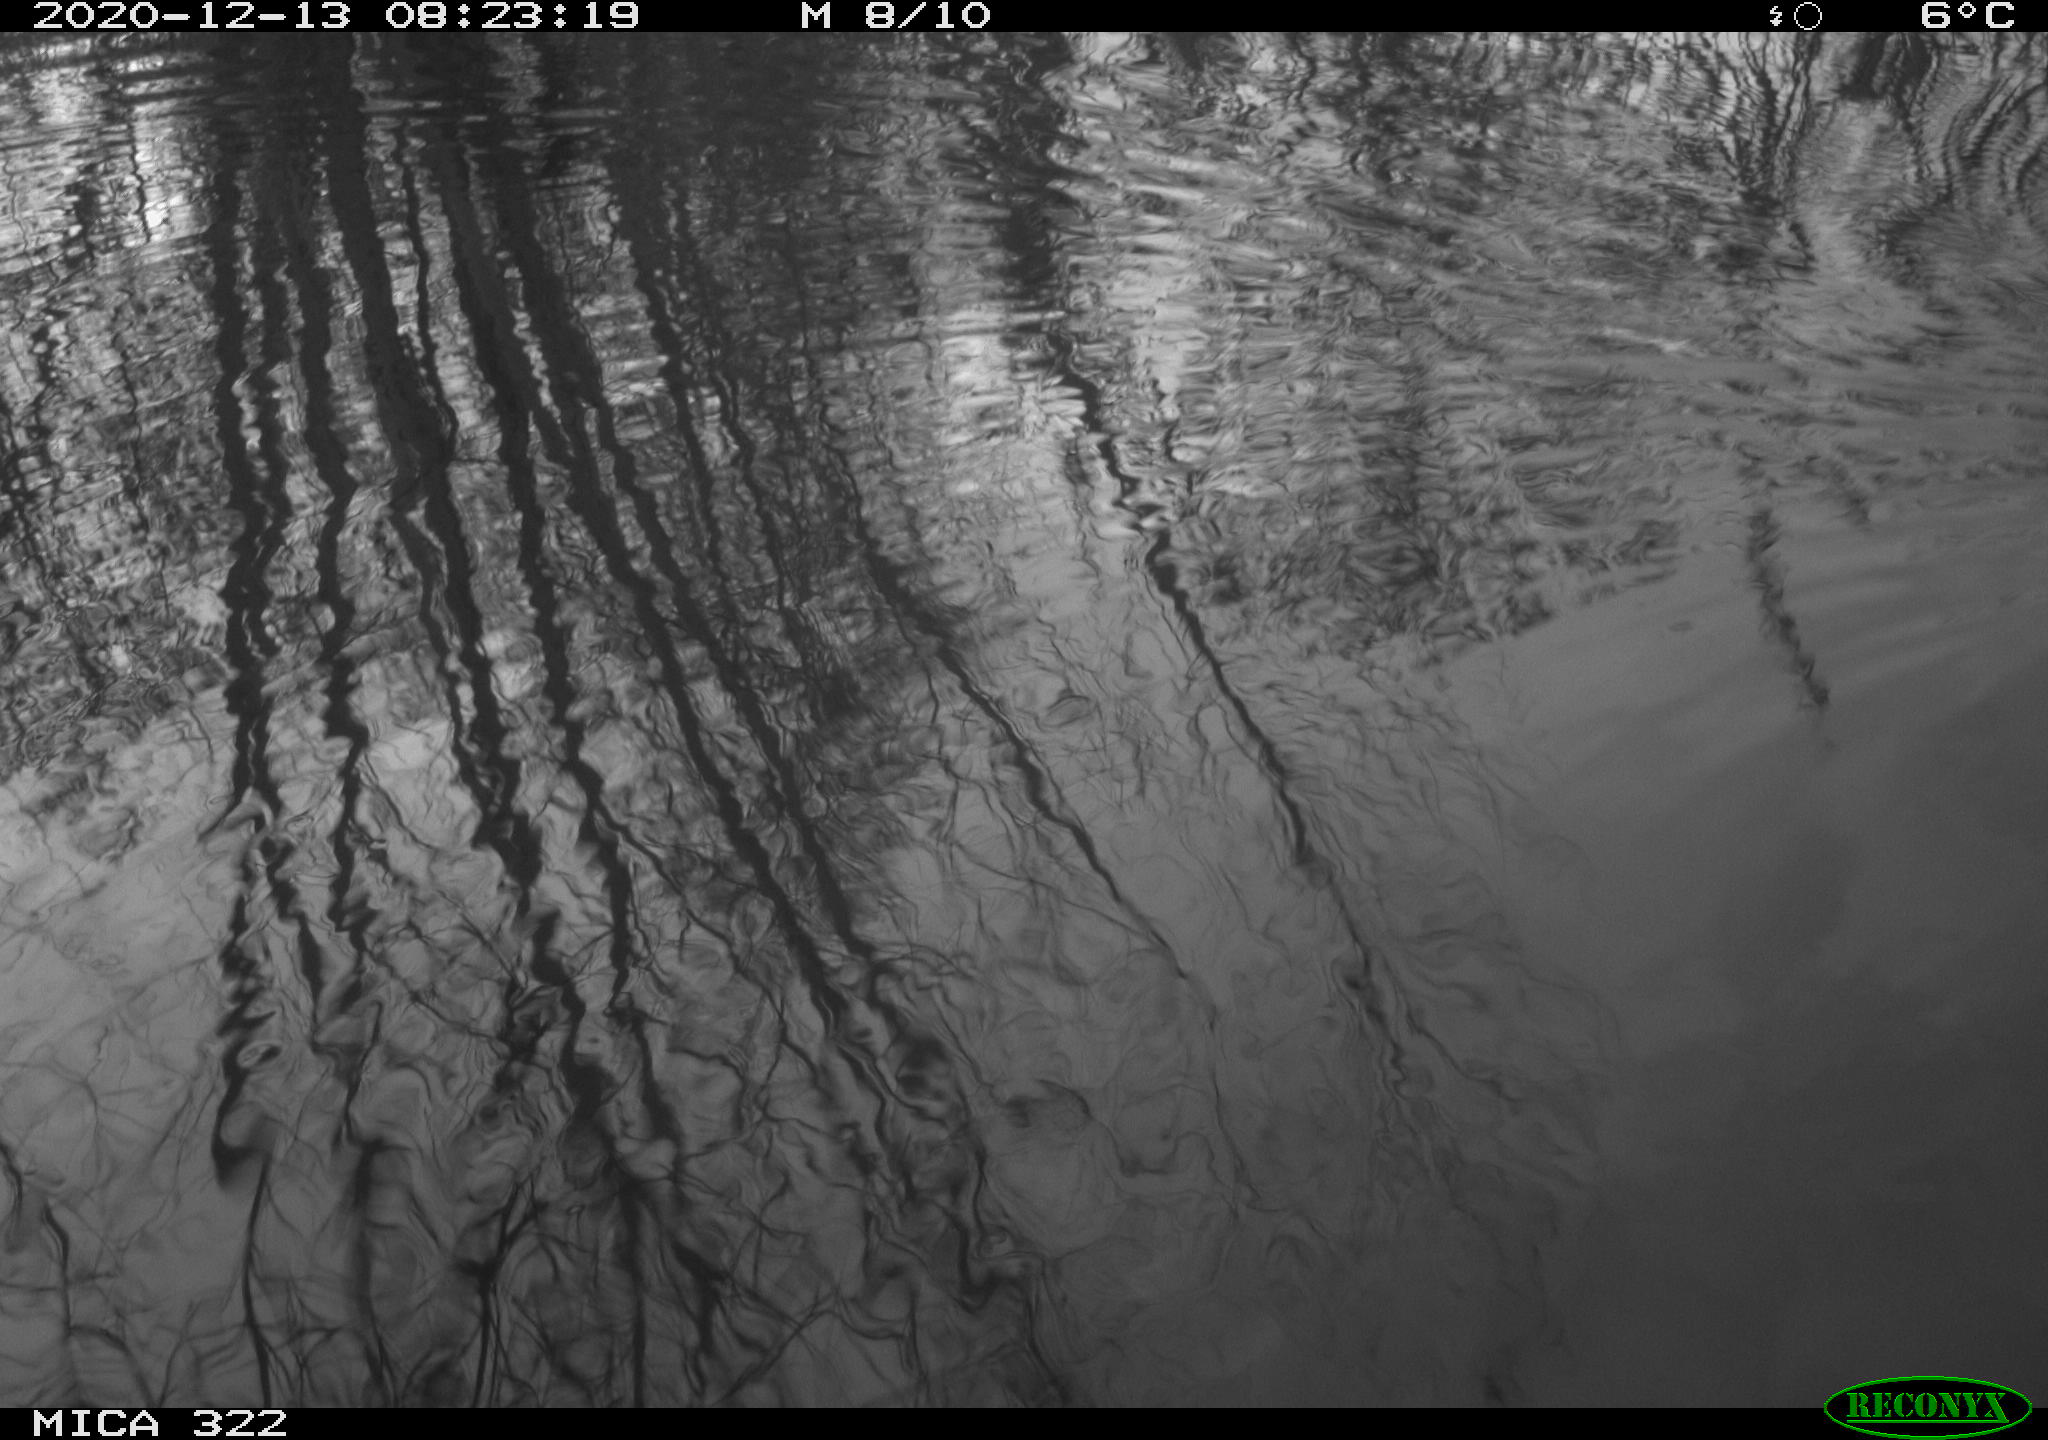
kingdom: Animalia
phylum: Chordata
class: Aves
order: Podicipediformes
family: Podicipedidae
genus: Tachybaptus
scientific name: Tachybaptus ruficollis
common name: Little grebe
